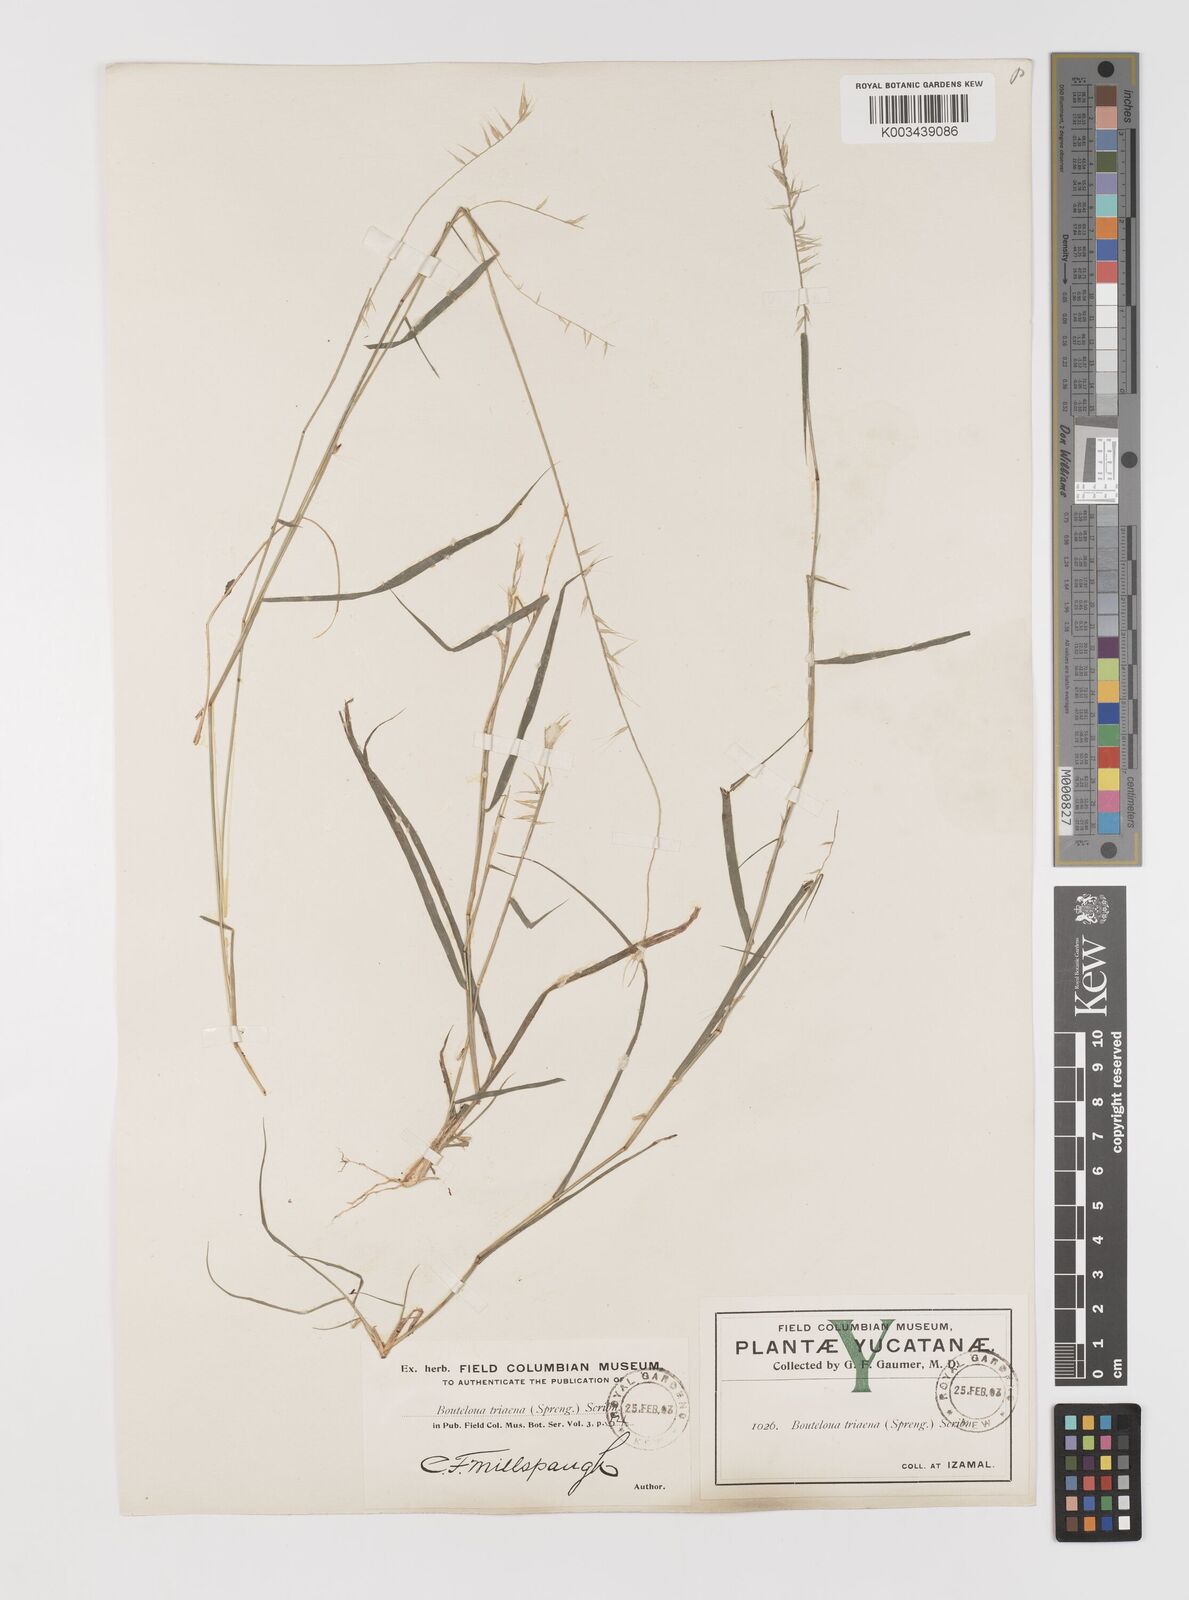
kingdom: Plantae
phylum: Tracheophyta
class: Liliopsida
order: Poales
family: Poaceae
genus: Bouteloua
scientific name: Bouteloua triaena
